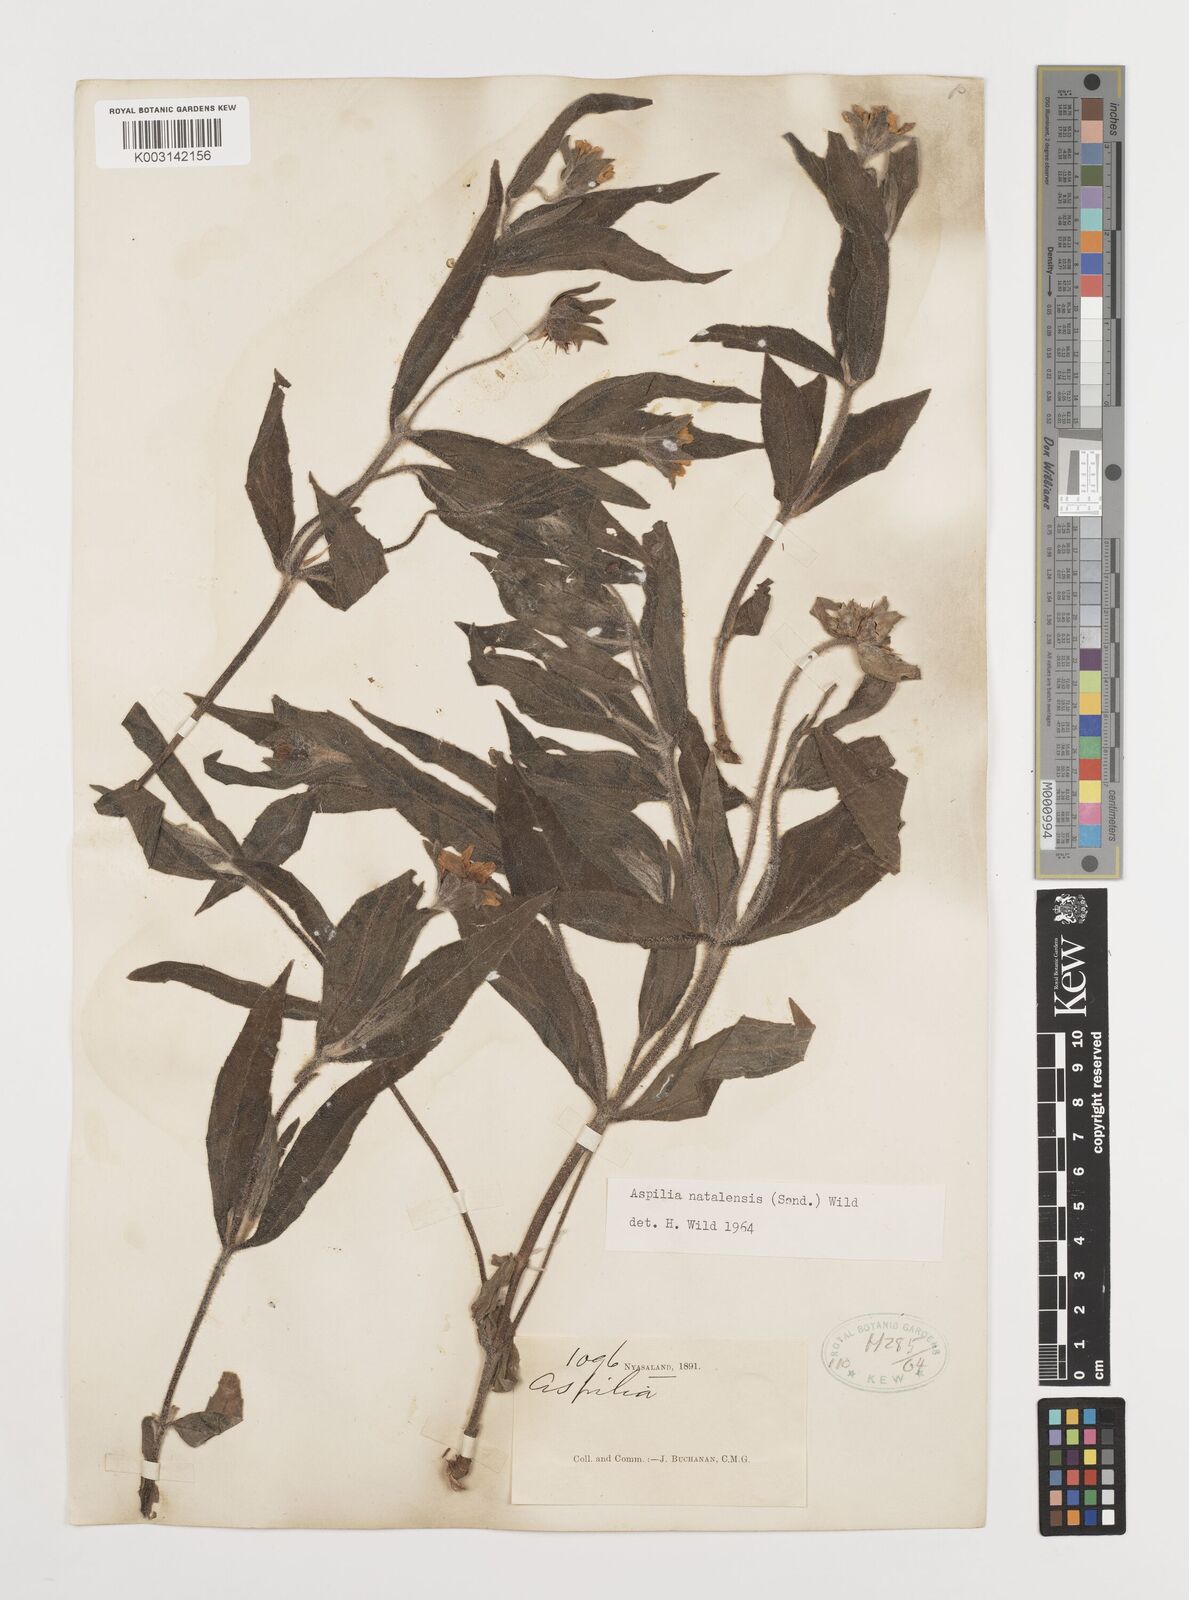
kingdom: Plantae
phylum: Tracheophyta
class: Magnoliopsida
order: Asterales
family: Asteraceae
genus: Aspilia
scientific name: Aspilia natalensis
